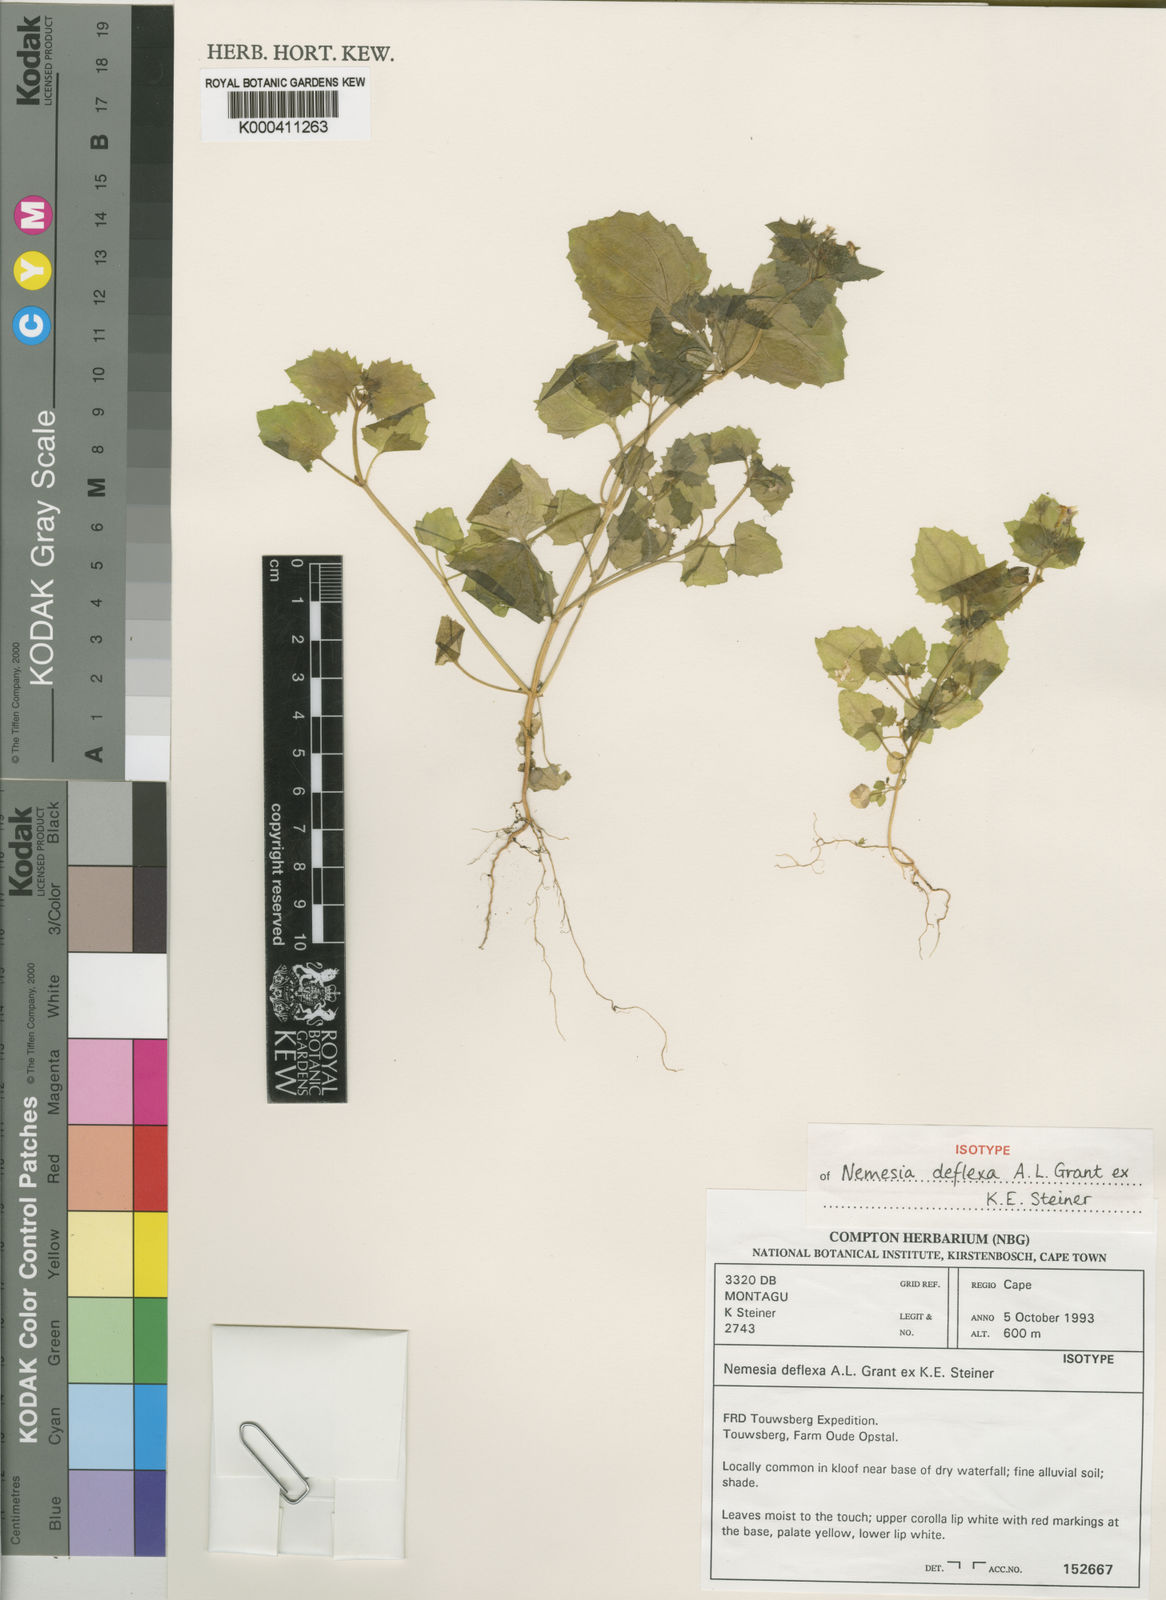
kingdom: Plantae
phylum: Tracheophyta
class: Magnoliopsida
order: Lamiales
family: Scrophulariaceae
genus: Nemesia
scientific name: Nemesia deflexa
